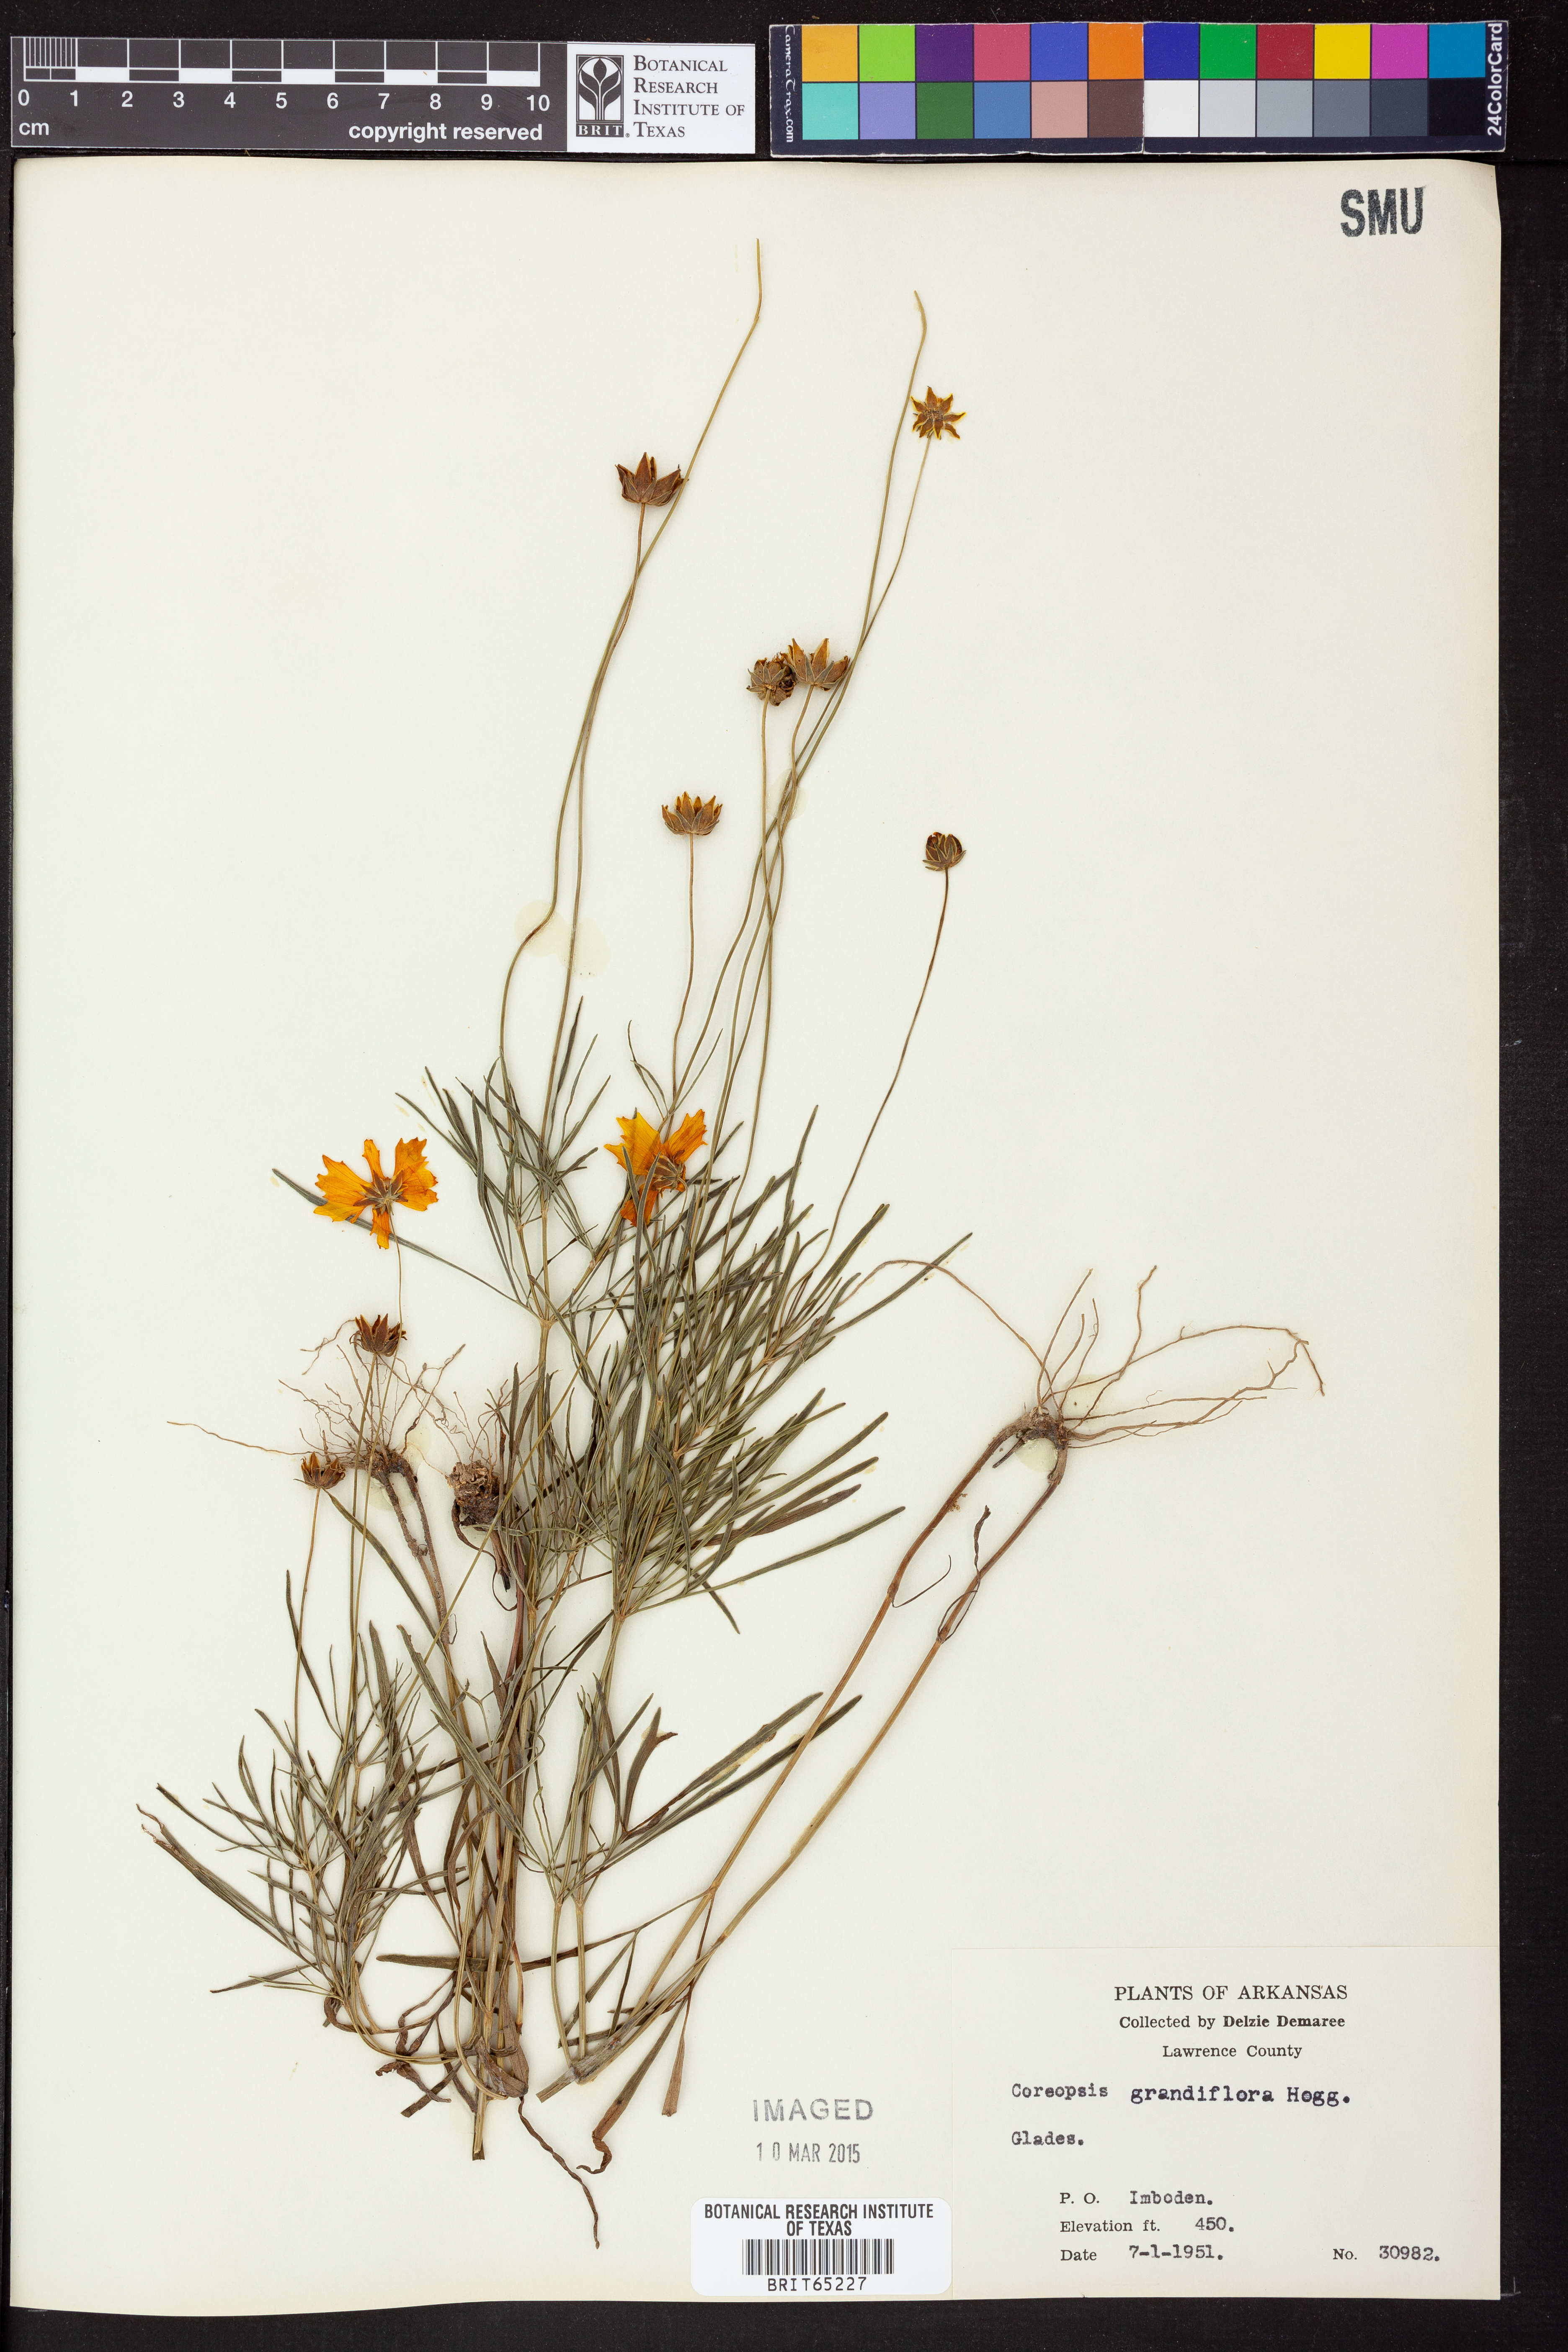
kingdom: Plantae
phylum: Tracheophyta
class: Magnoliopsida
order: Asterales
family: Asteraceae
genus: Coreopsis
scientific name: Coreopsis grandiflora
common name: Large-flowered tickseed
